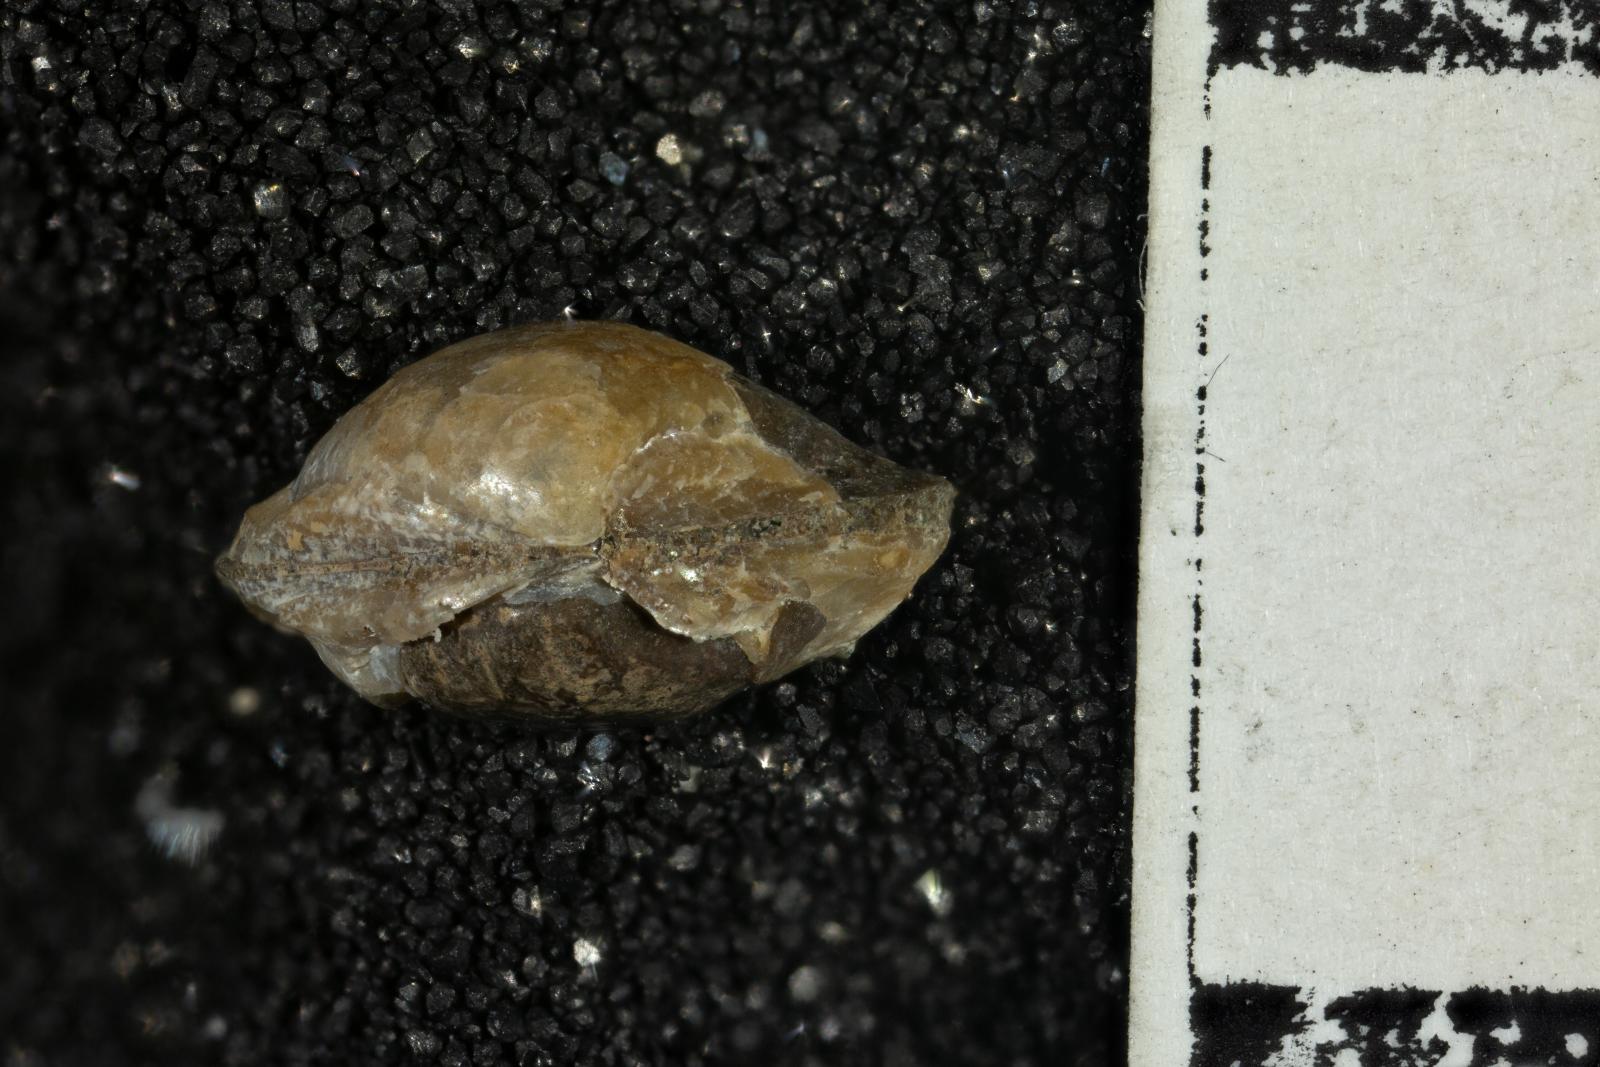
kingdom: Animalia
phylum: Mollusca
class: Bivalvia
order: Nuculida
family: Nuculidae
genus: Acila
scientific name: Acila demessa
